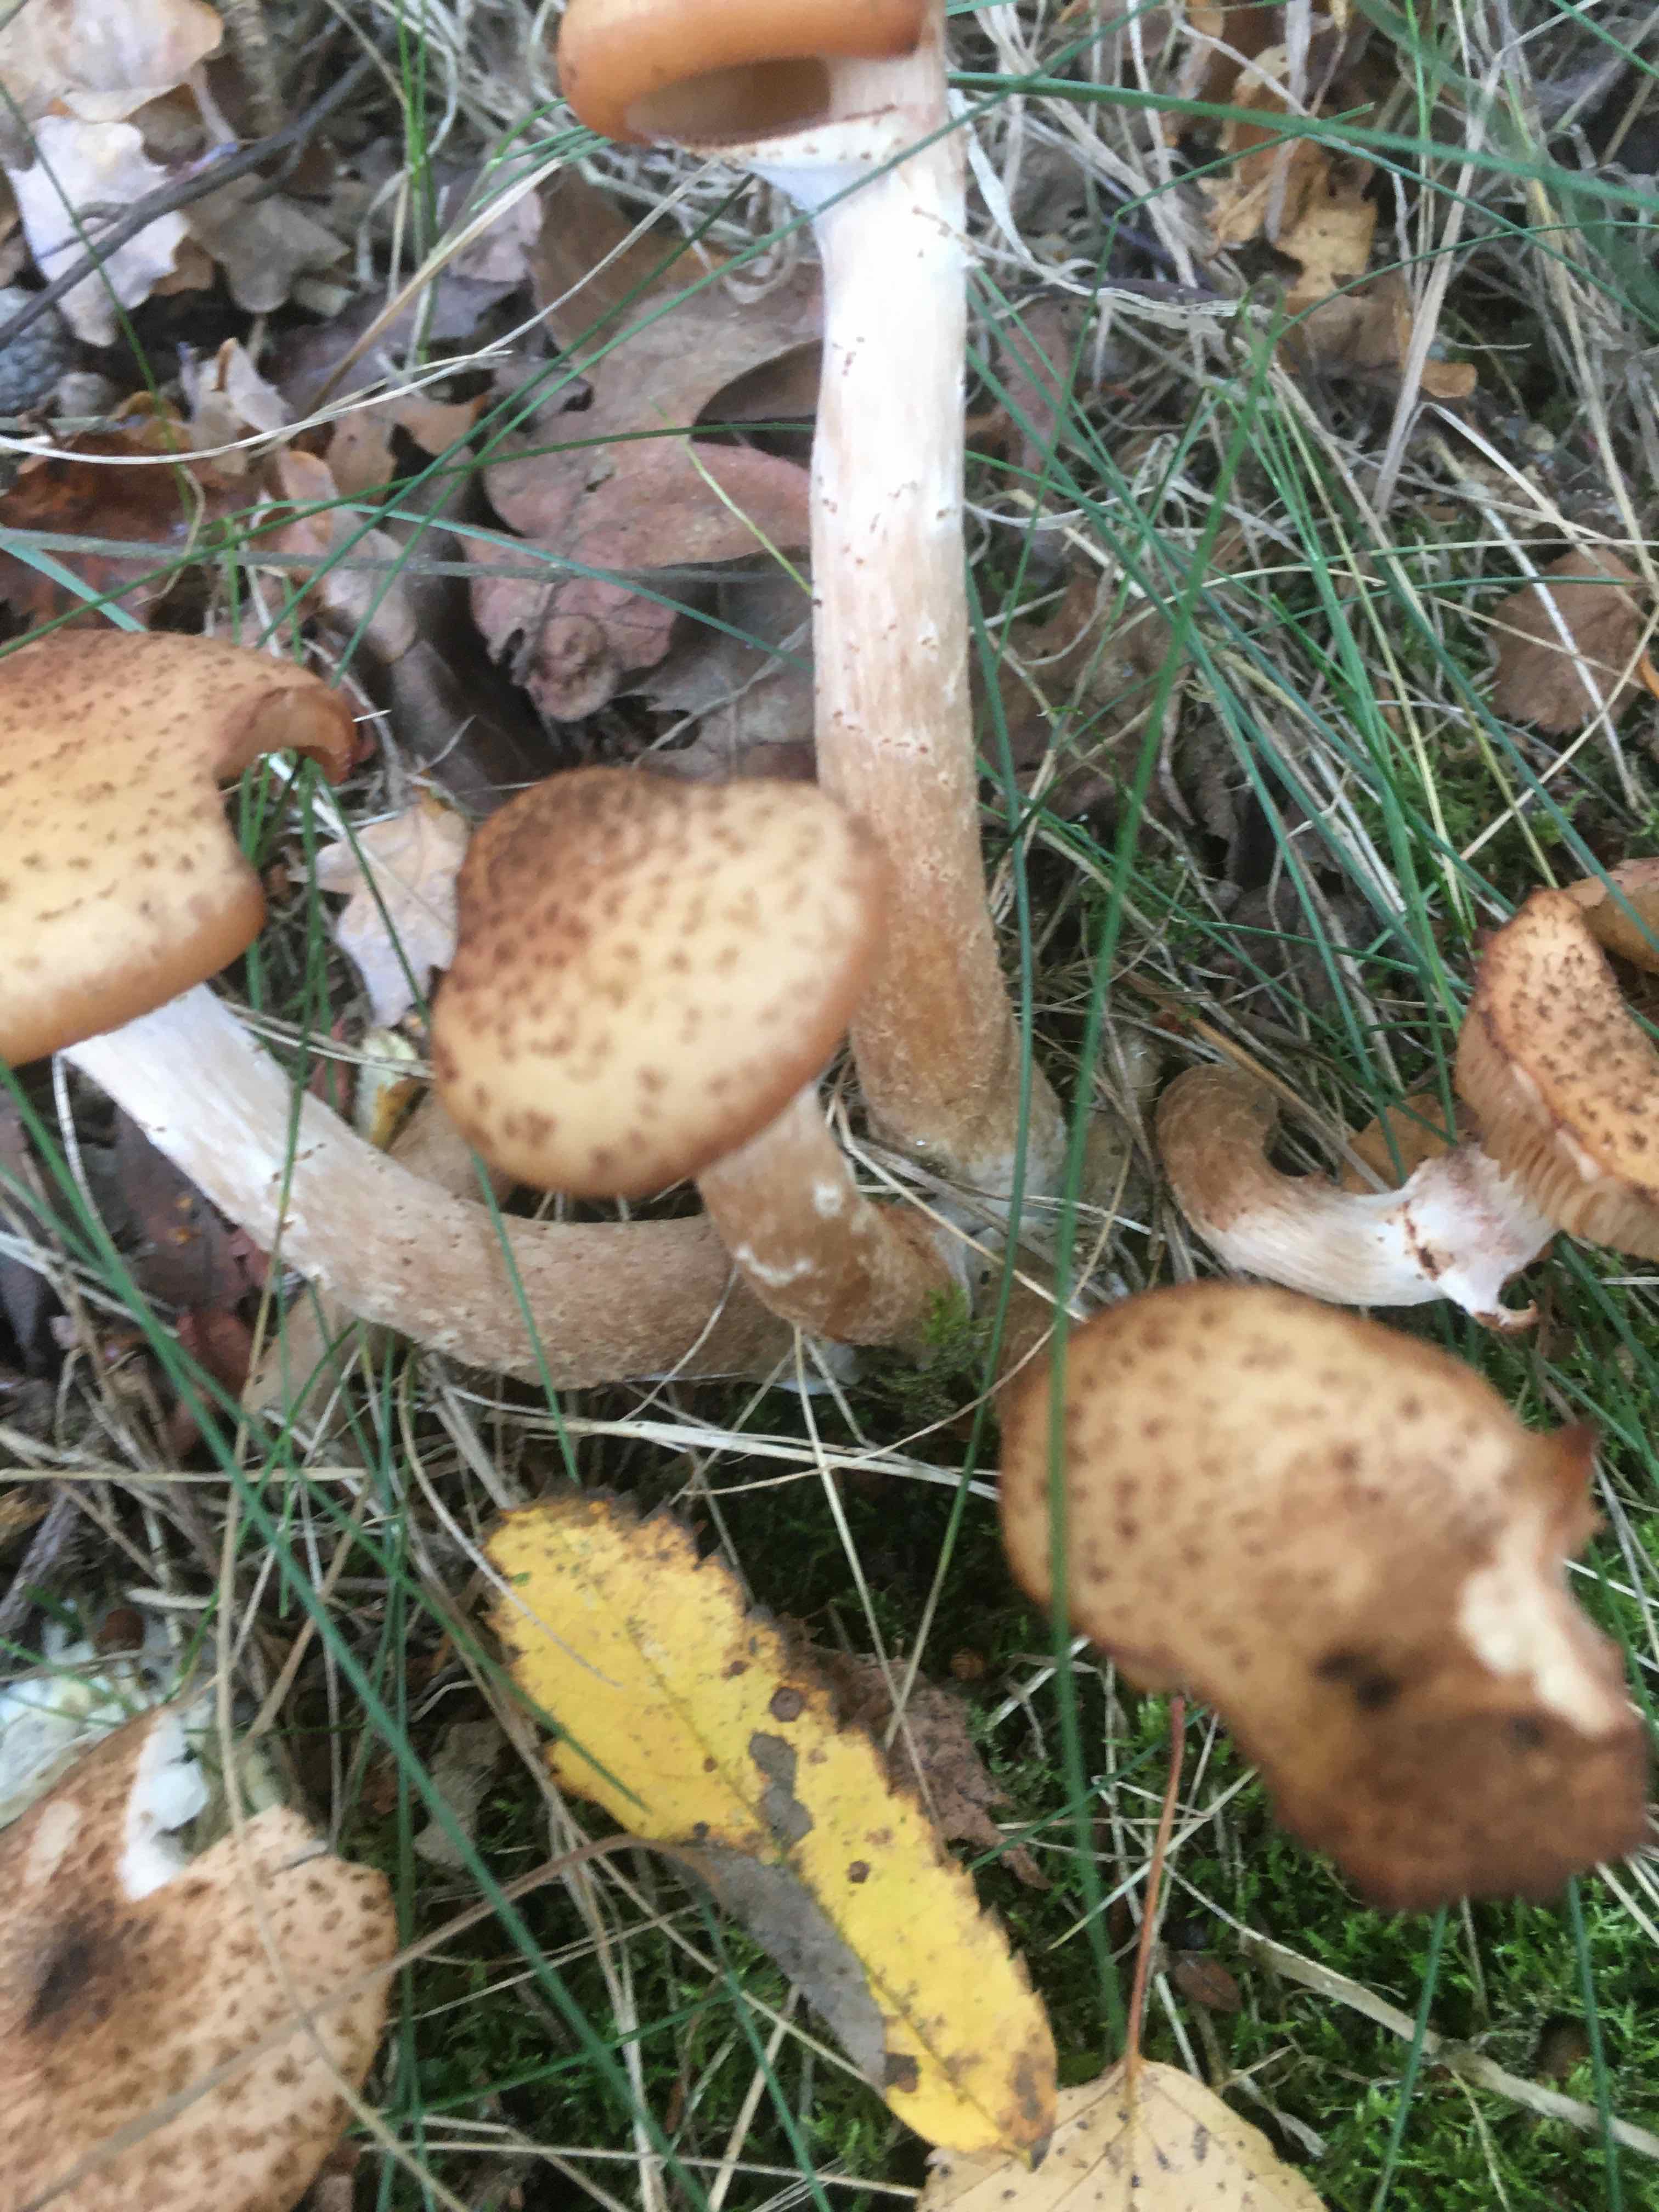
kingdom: Fungi
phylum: Basidiomycota
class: Agaricomycetes
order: Agaricales
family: Physalacriaceae
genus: Armillaria
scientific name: Armillaria lutea
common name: køllestokket honningsvamp
